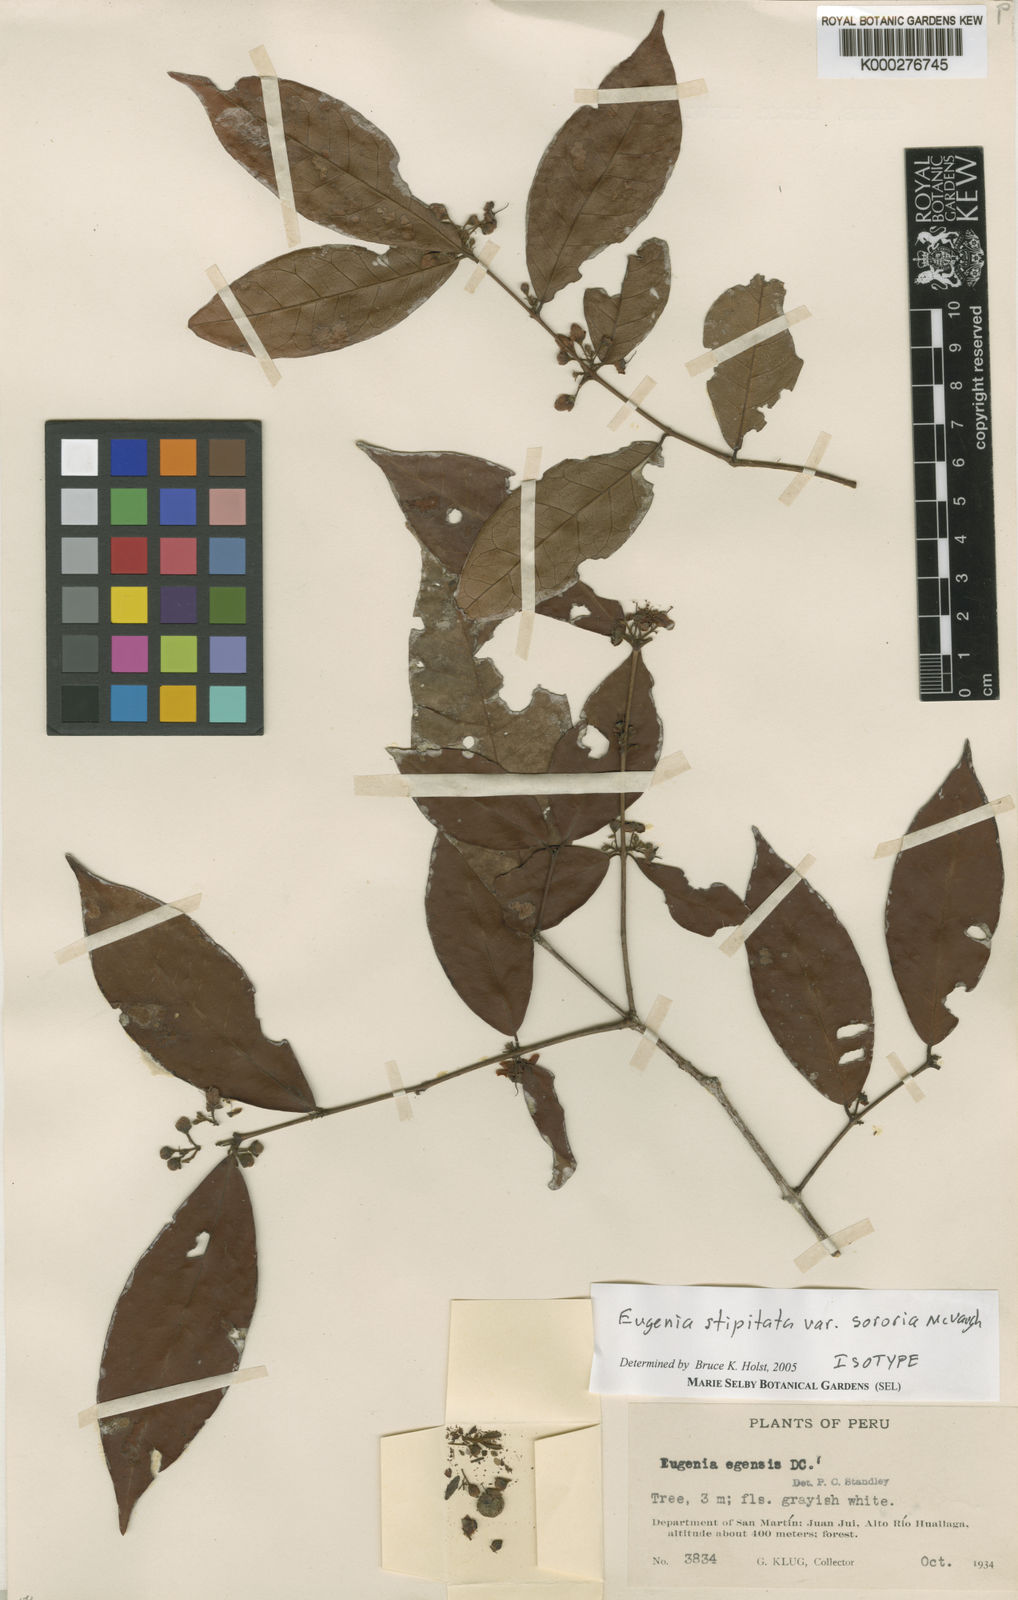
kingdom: Plantae
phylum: Tracheophyta
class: Magnoliopsida
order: Myrtales
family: Myrtaceae
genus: Eugenia
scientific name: Eugenia stipitata
